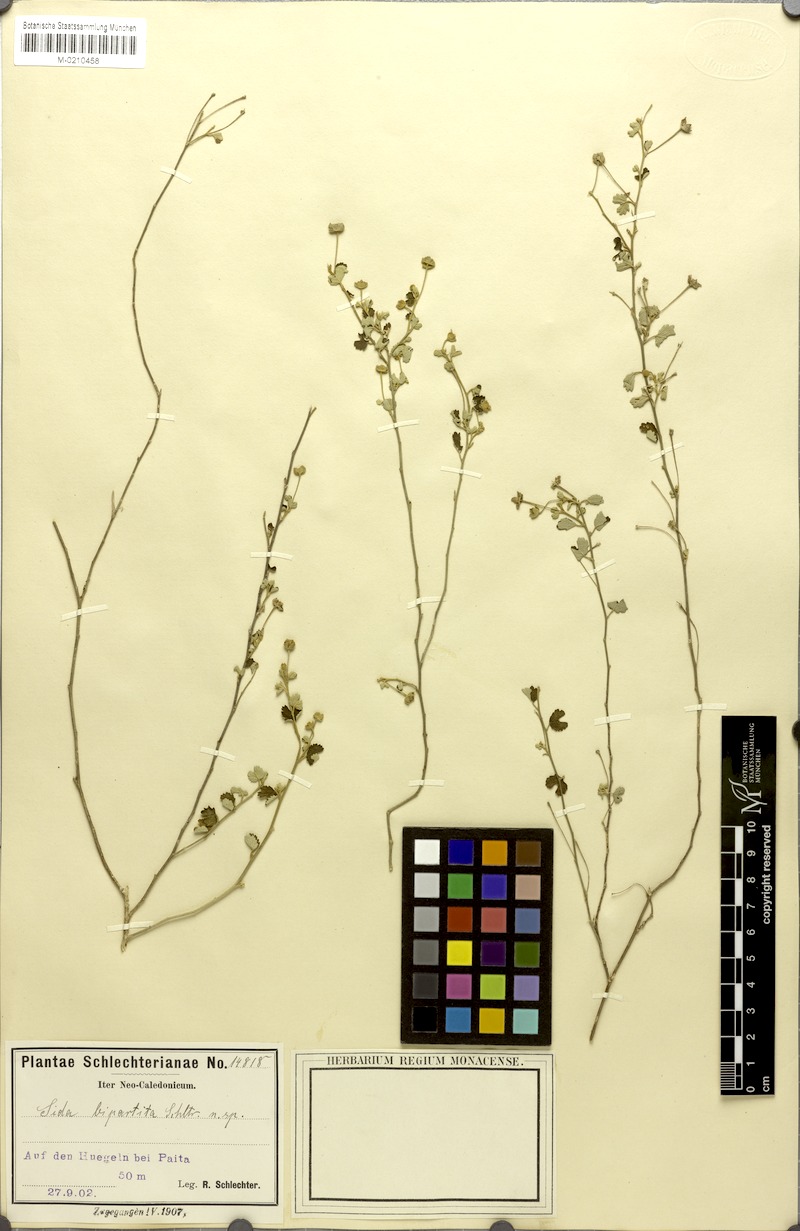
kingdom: Plantae
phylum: Tracheophyta
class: Magnoliopsida
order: Malvales
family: Malvaceae
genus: Sida
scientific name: Sida bipartita
